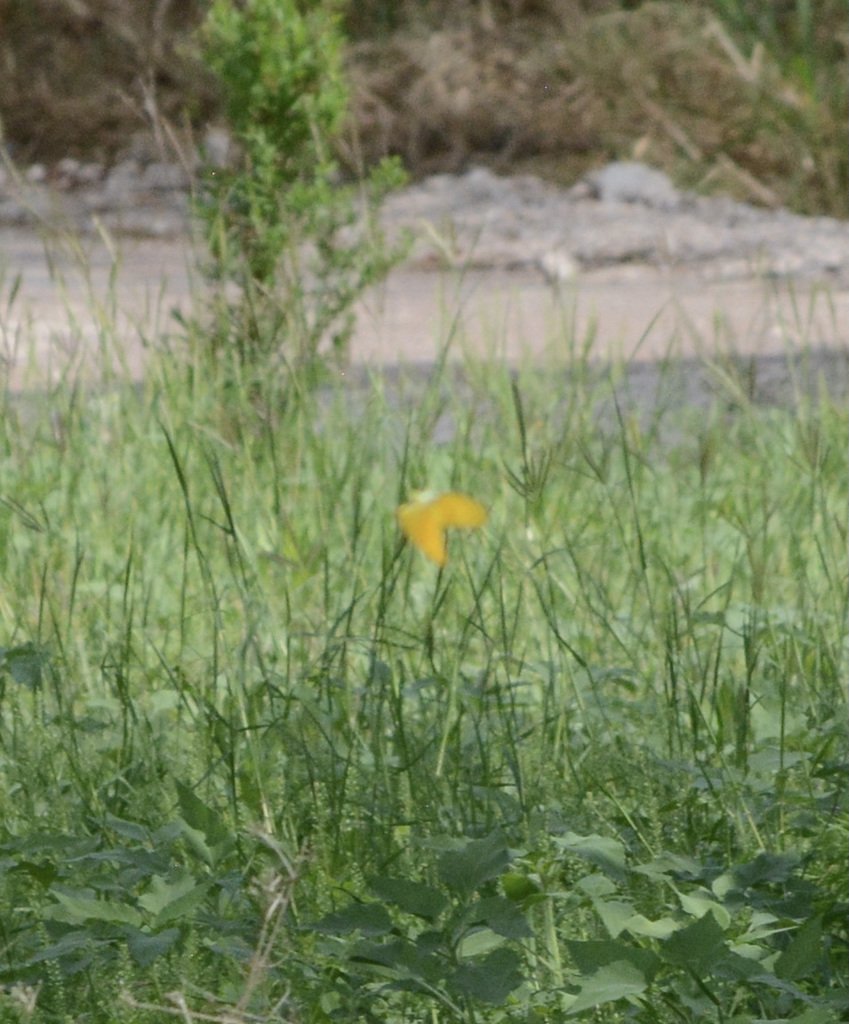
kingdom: Animalia
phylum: Arthropoda
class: Insecta
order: Lepidoptera
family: Pieridae
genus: Phoebis
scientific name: Phoebis agarithe
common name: Large Orange Sulphur
